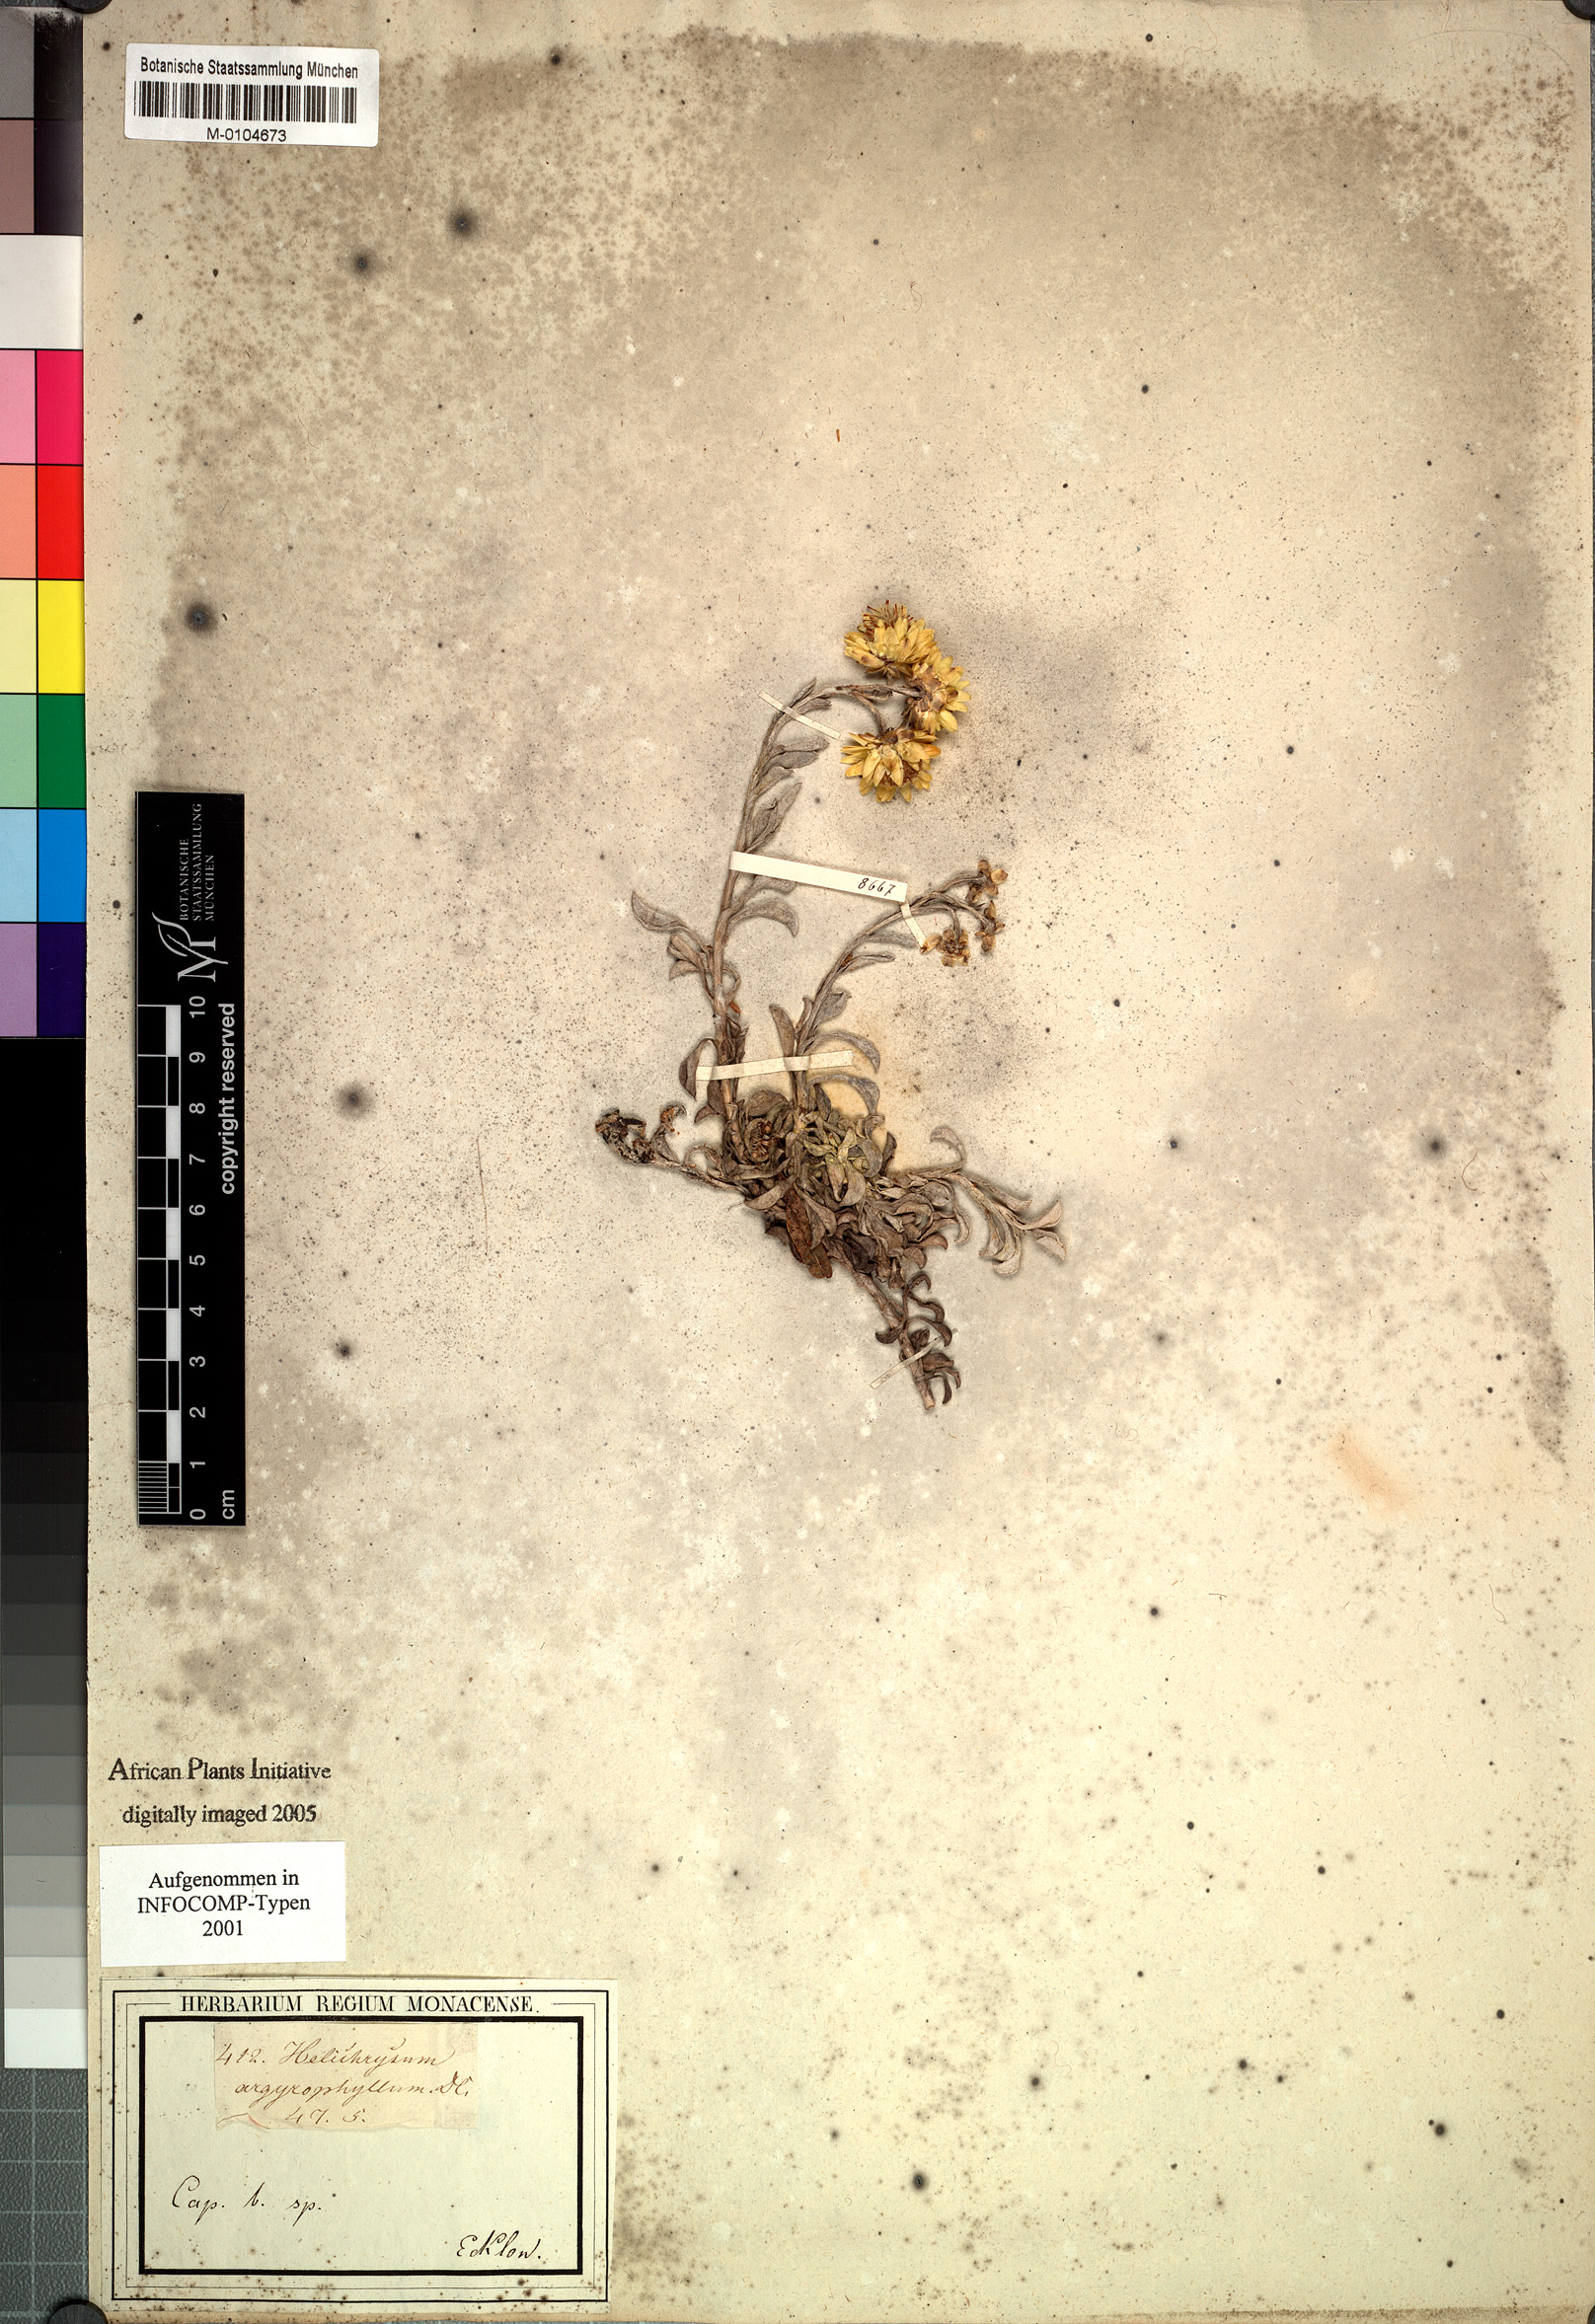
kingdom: Plantae
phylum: Tracheophyta
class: Magnoliopsida
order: Asterales
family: Asteraceae
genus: Helichrysum
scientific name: Helichrysum argyrophyllum
